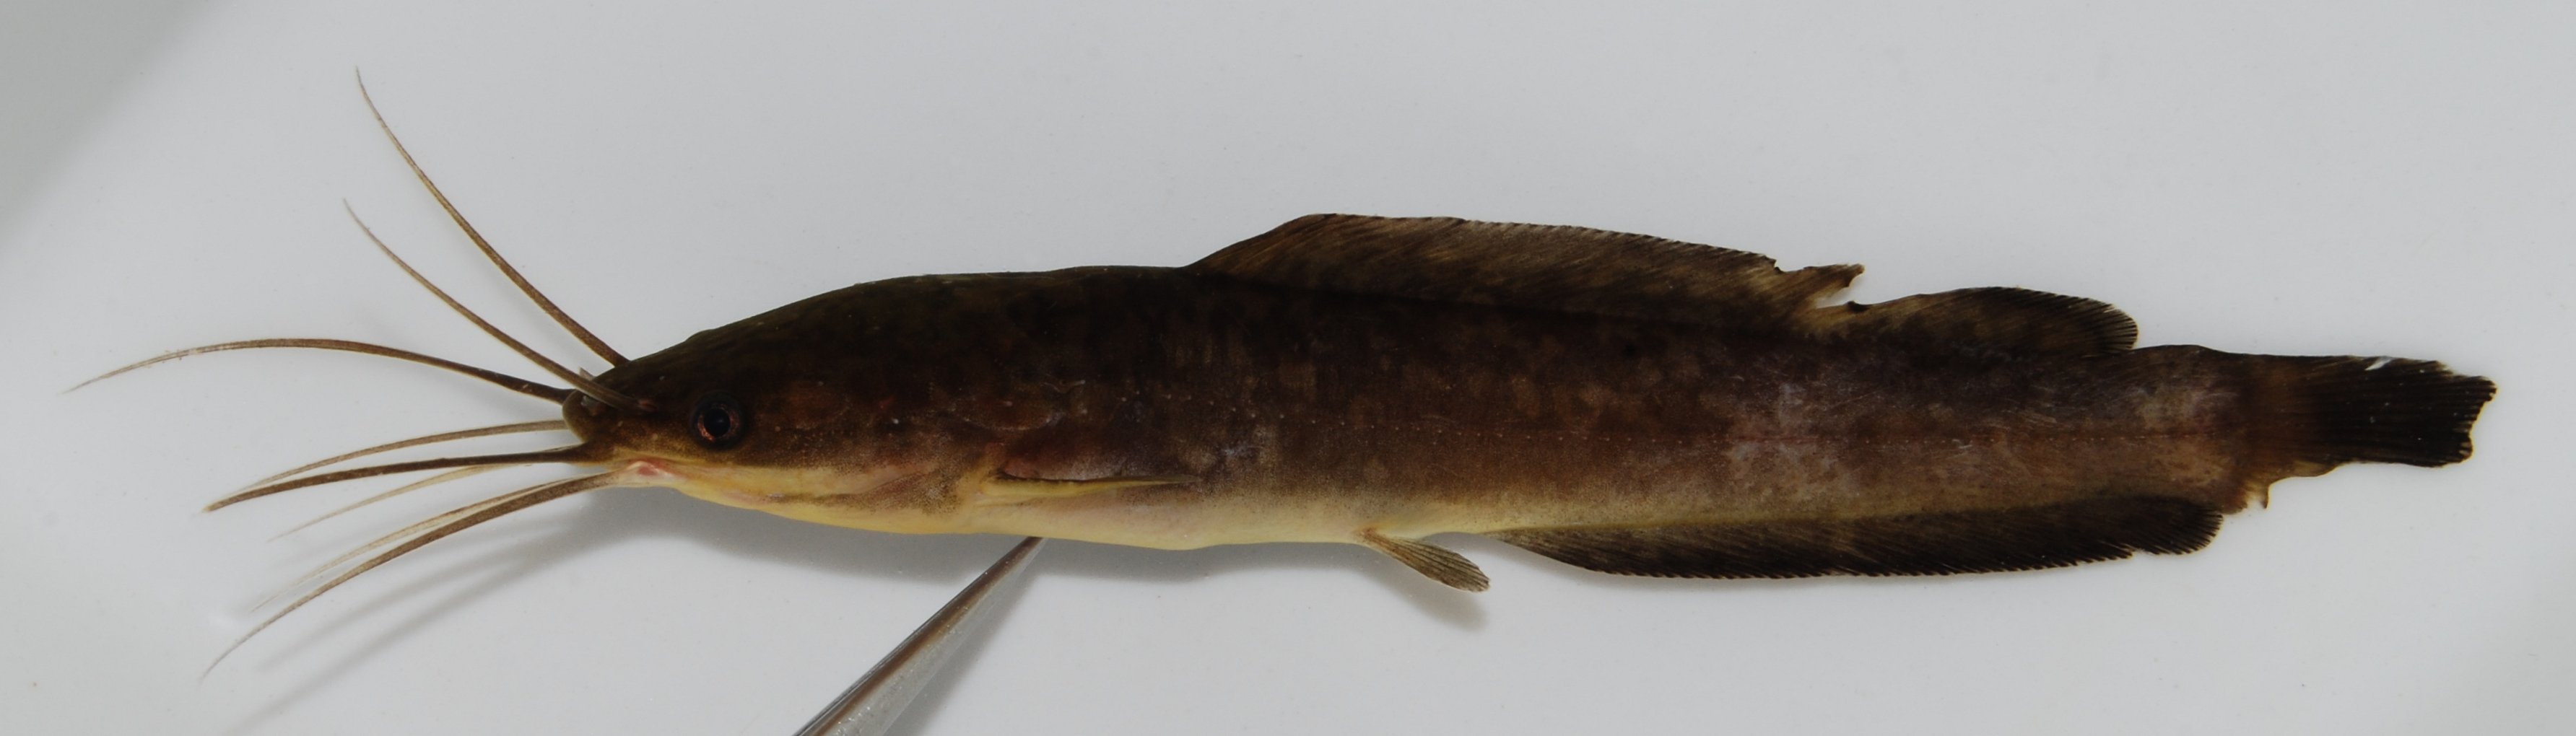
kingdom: Animalia
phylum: Chordata
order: Siluriformes
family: Clariidae
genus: Clarias
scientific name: Clarias ngamensis
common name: Blunt-toothed african catfish
